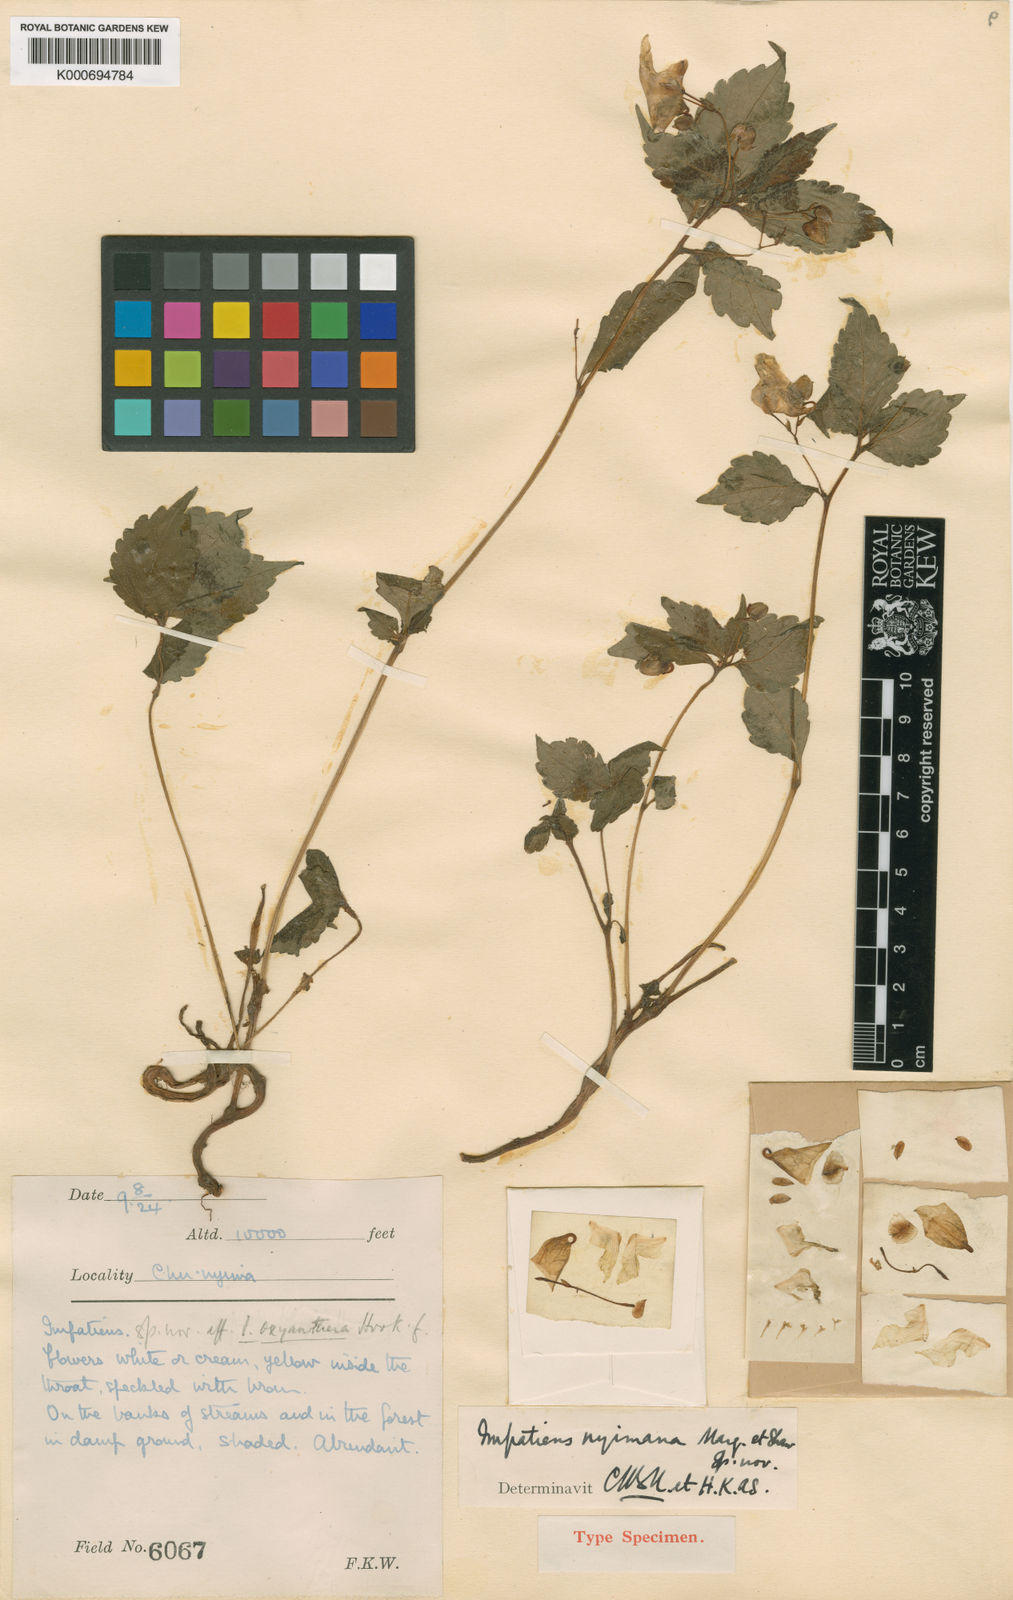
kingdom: Plantae
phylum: Tracheophyta
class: Magnoliopsida
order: Ericales
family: Balsaminaceae
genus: Impatiens
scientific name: Impatiens nyimana
